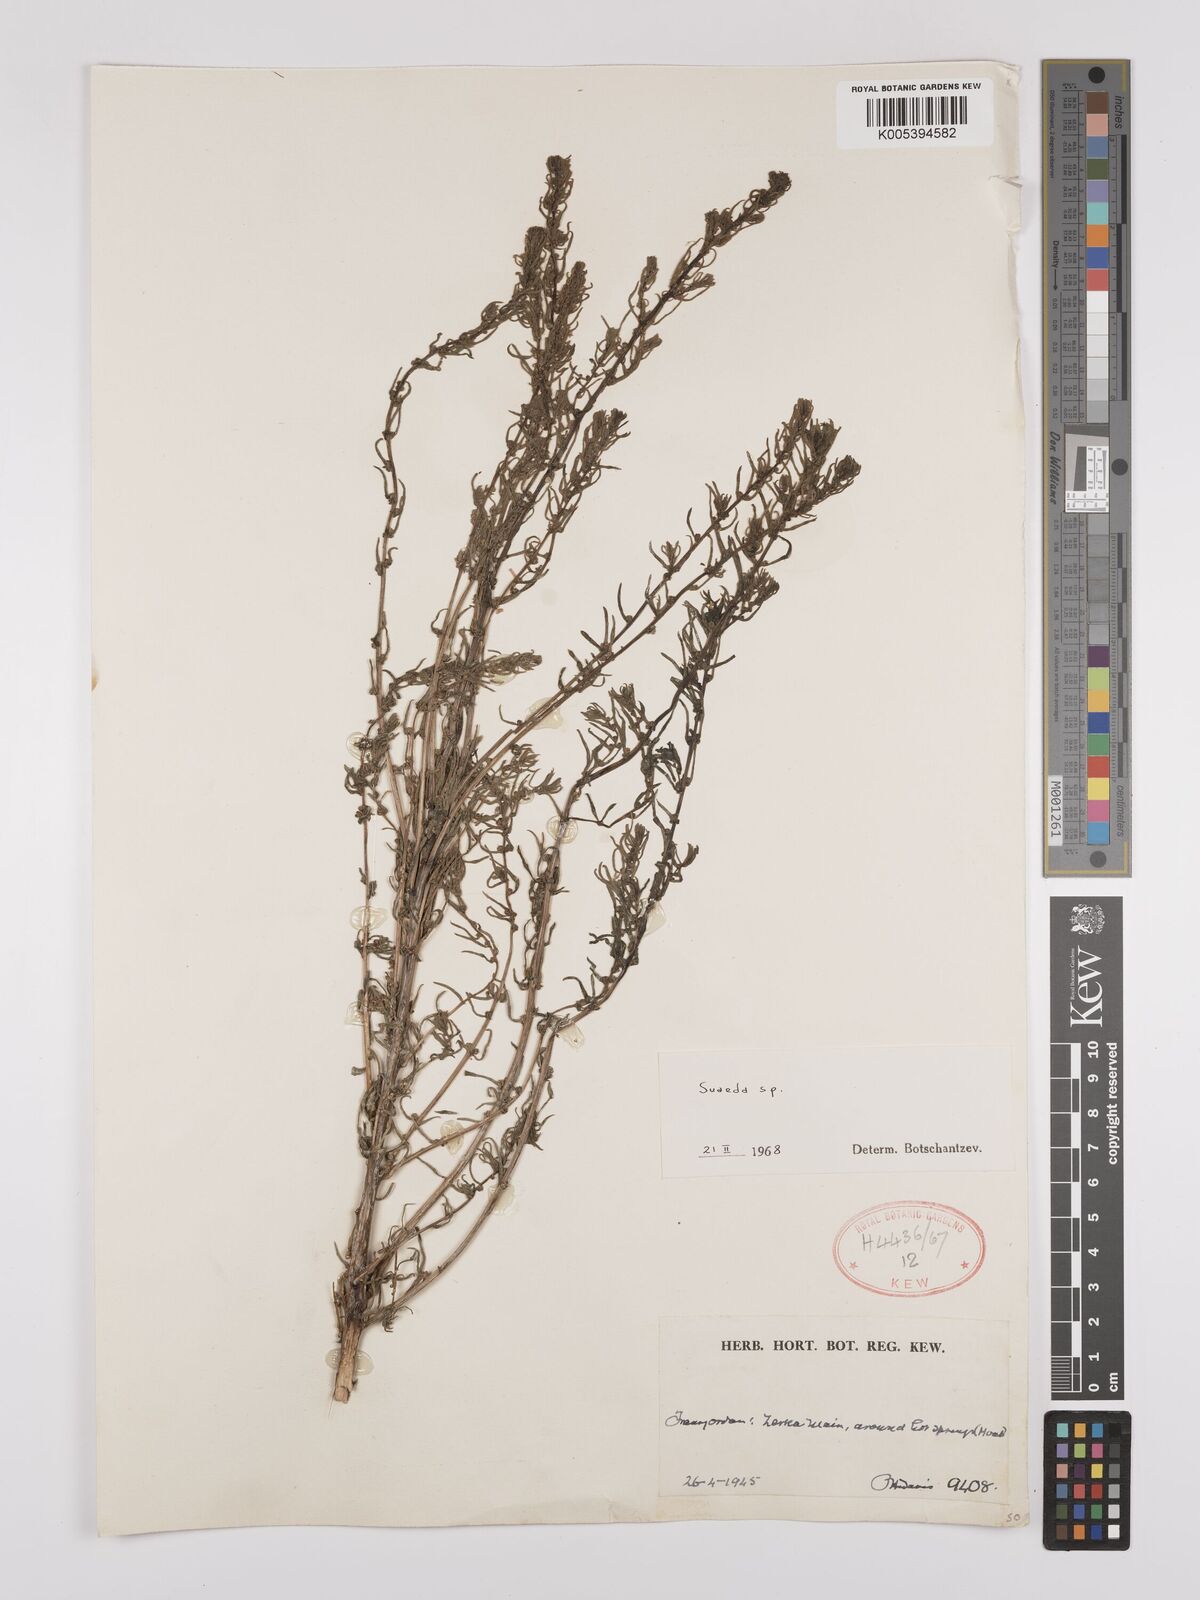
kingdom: Plantae
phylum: Tracheophyta
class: Magnoliopsida
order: Caryophyllales
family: Amaranthaceae
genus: Suaeda
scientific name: Suaeda
